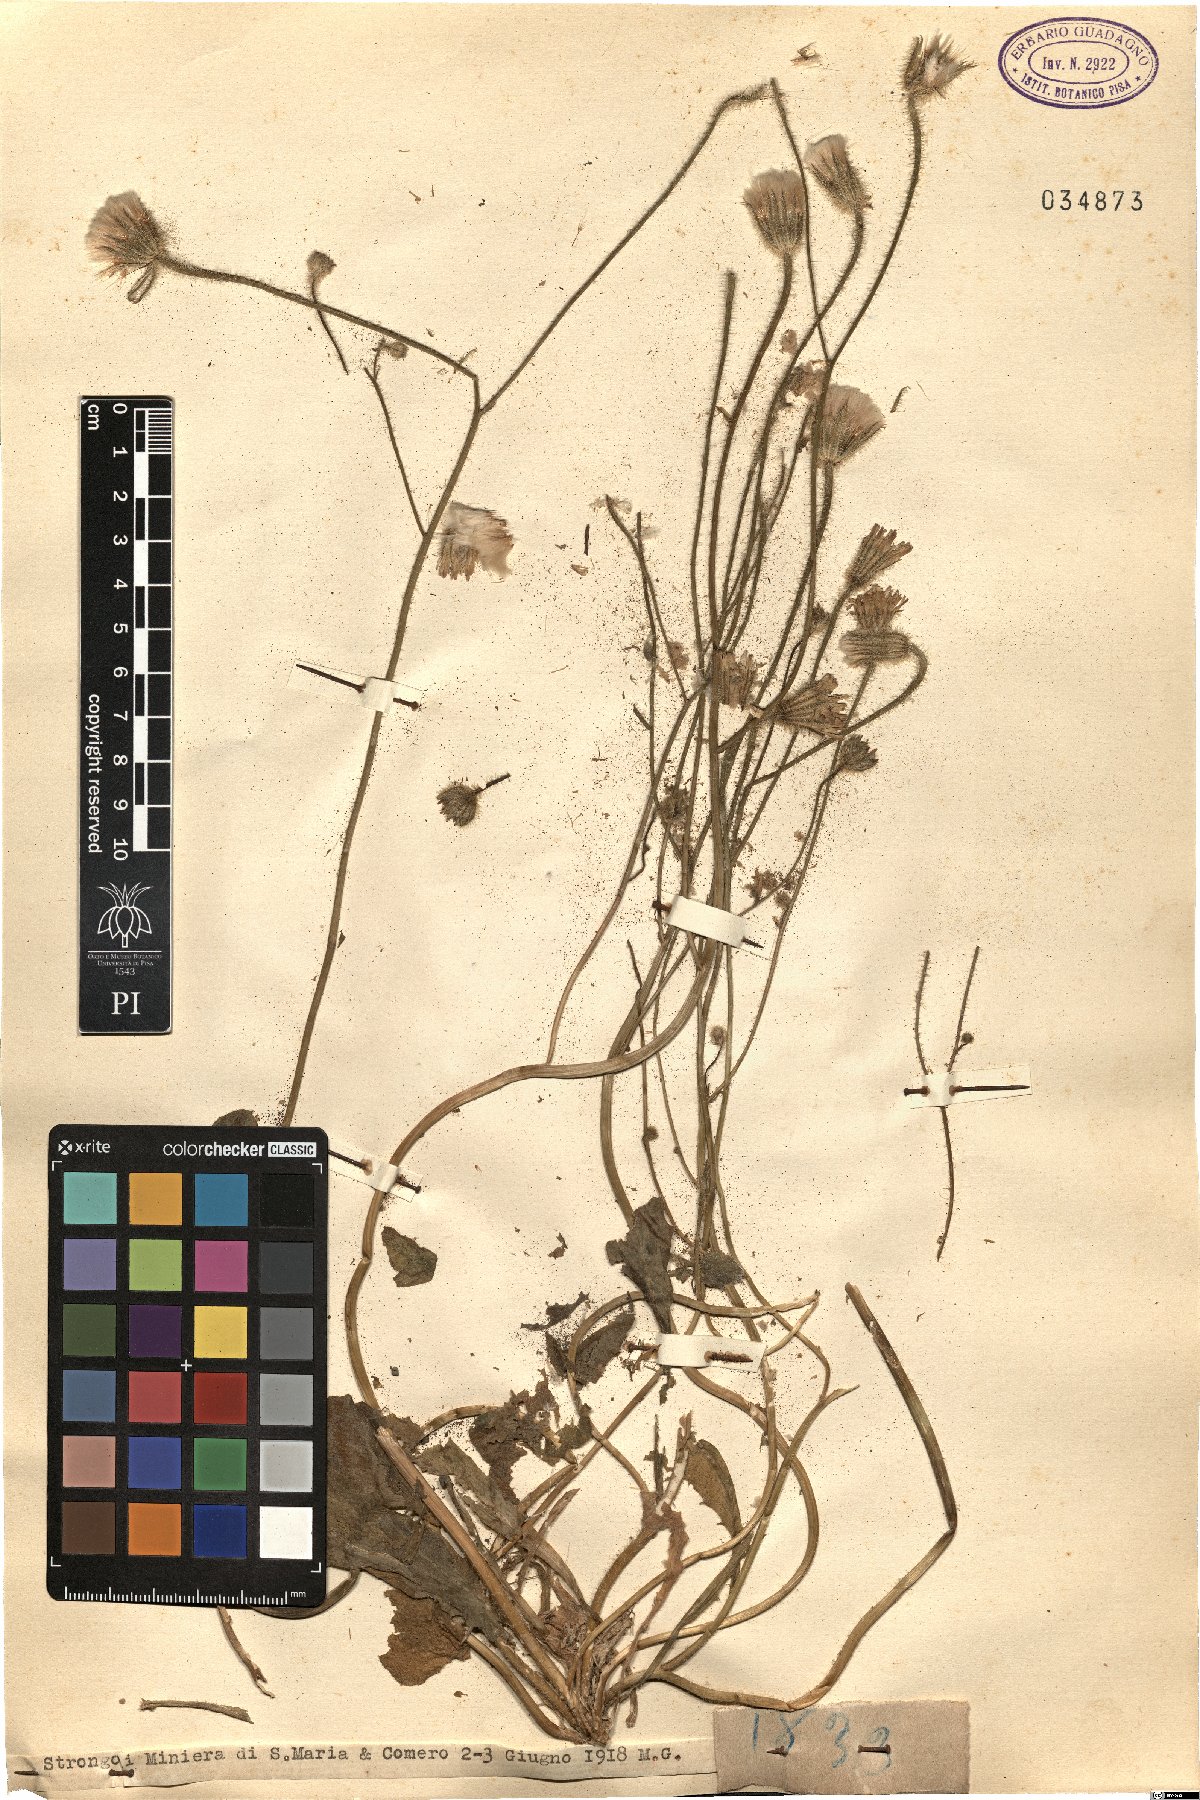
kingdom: Plantae
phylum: Tracheophyta
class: Magnoliopsida
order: Asterales
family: Asteraceae
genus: Hypochaeris
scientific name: Hypochaeris
